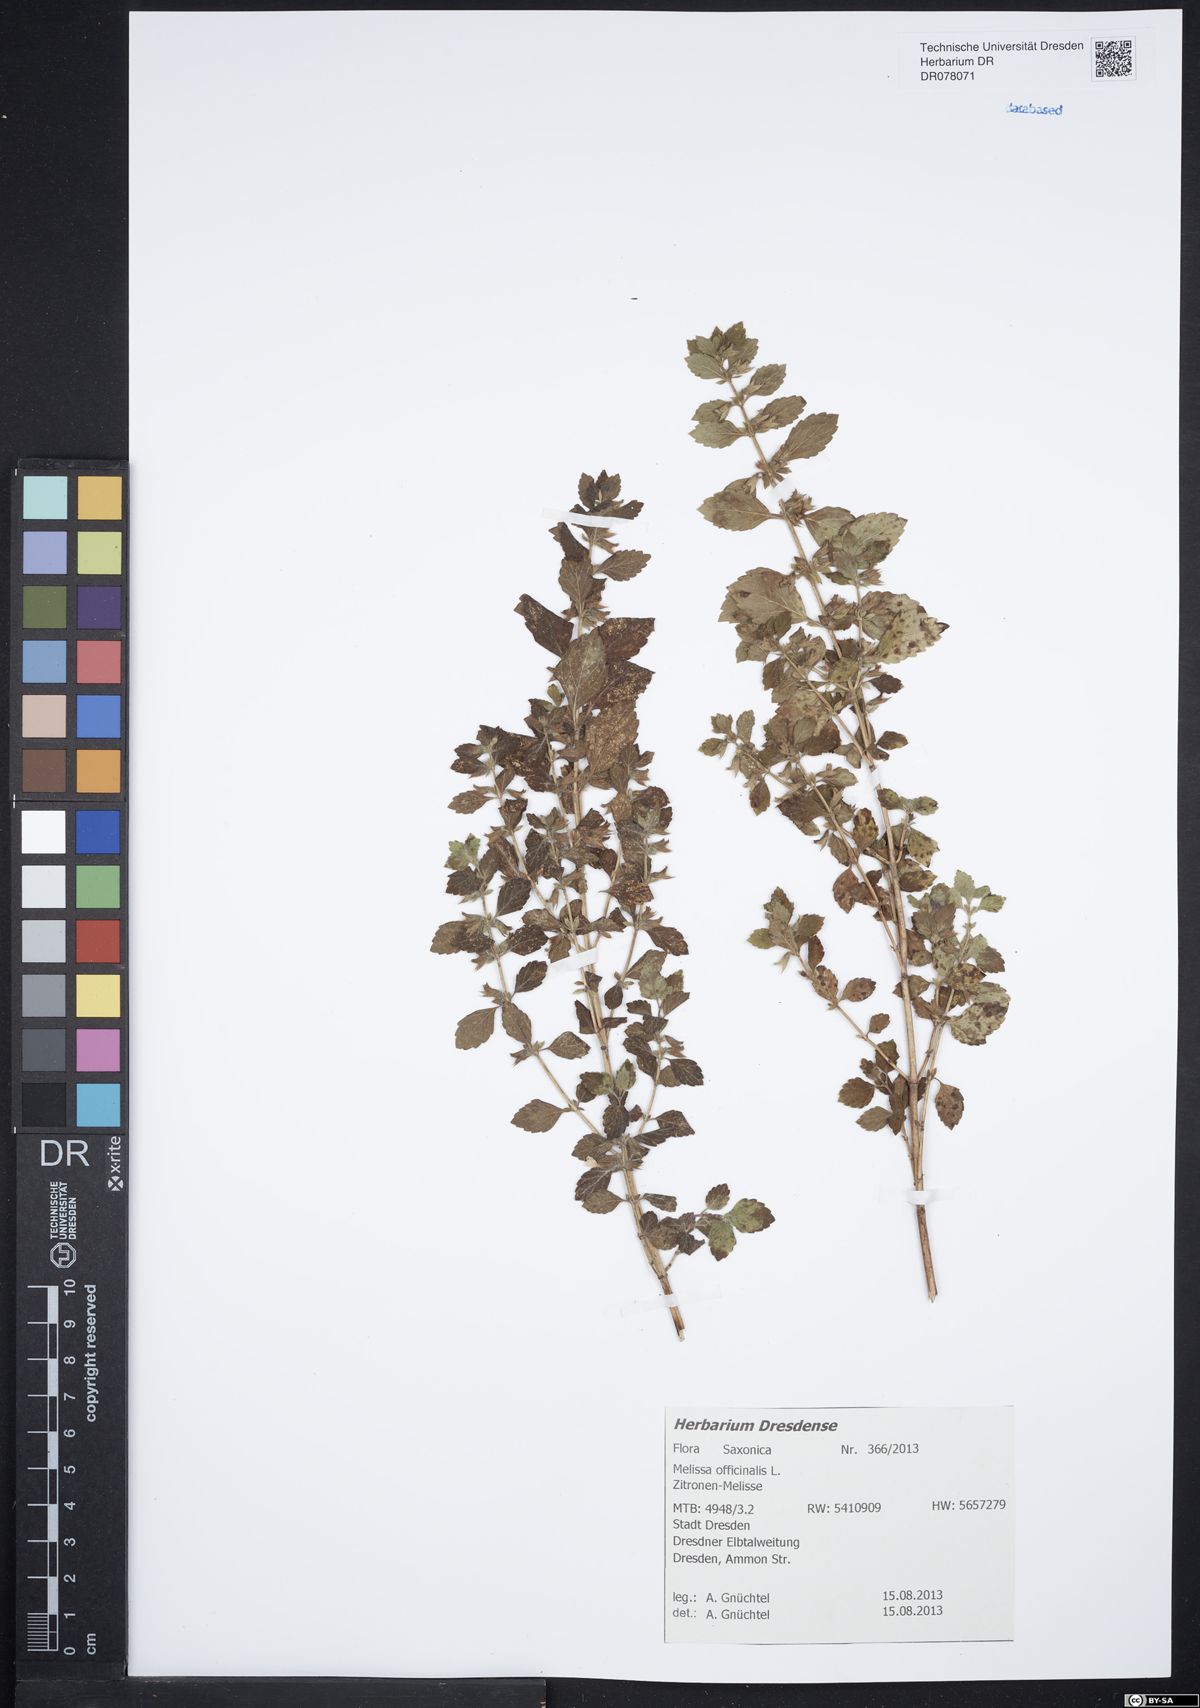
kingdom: Plantae
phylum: Tracheophyta
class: Magnoliopsida
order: Lamiales
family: Lamiaceae
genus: Melissa
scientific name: Melissa officinalis
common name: Balm
